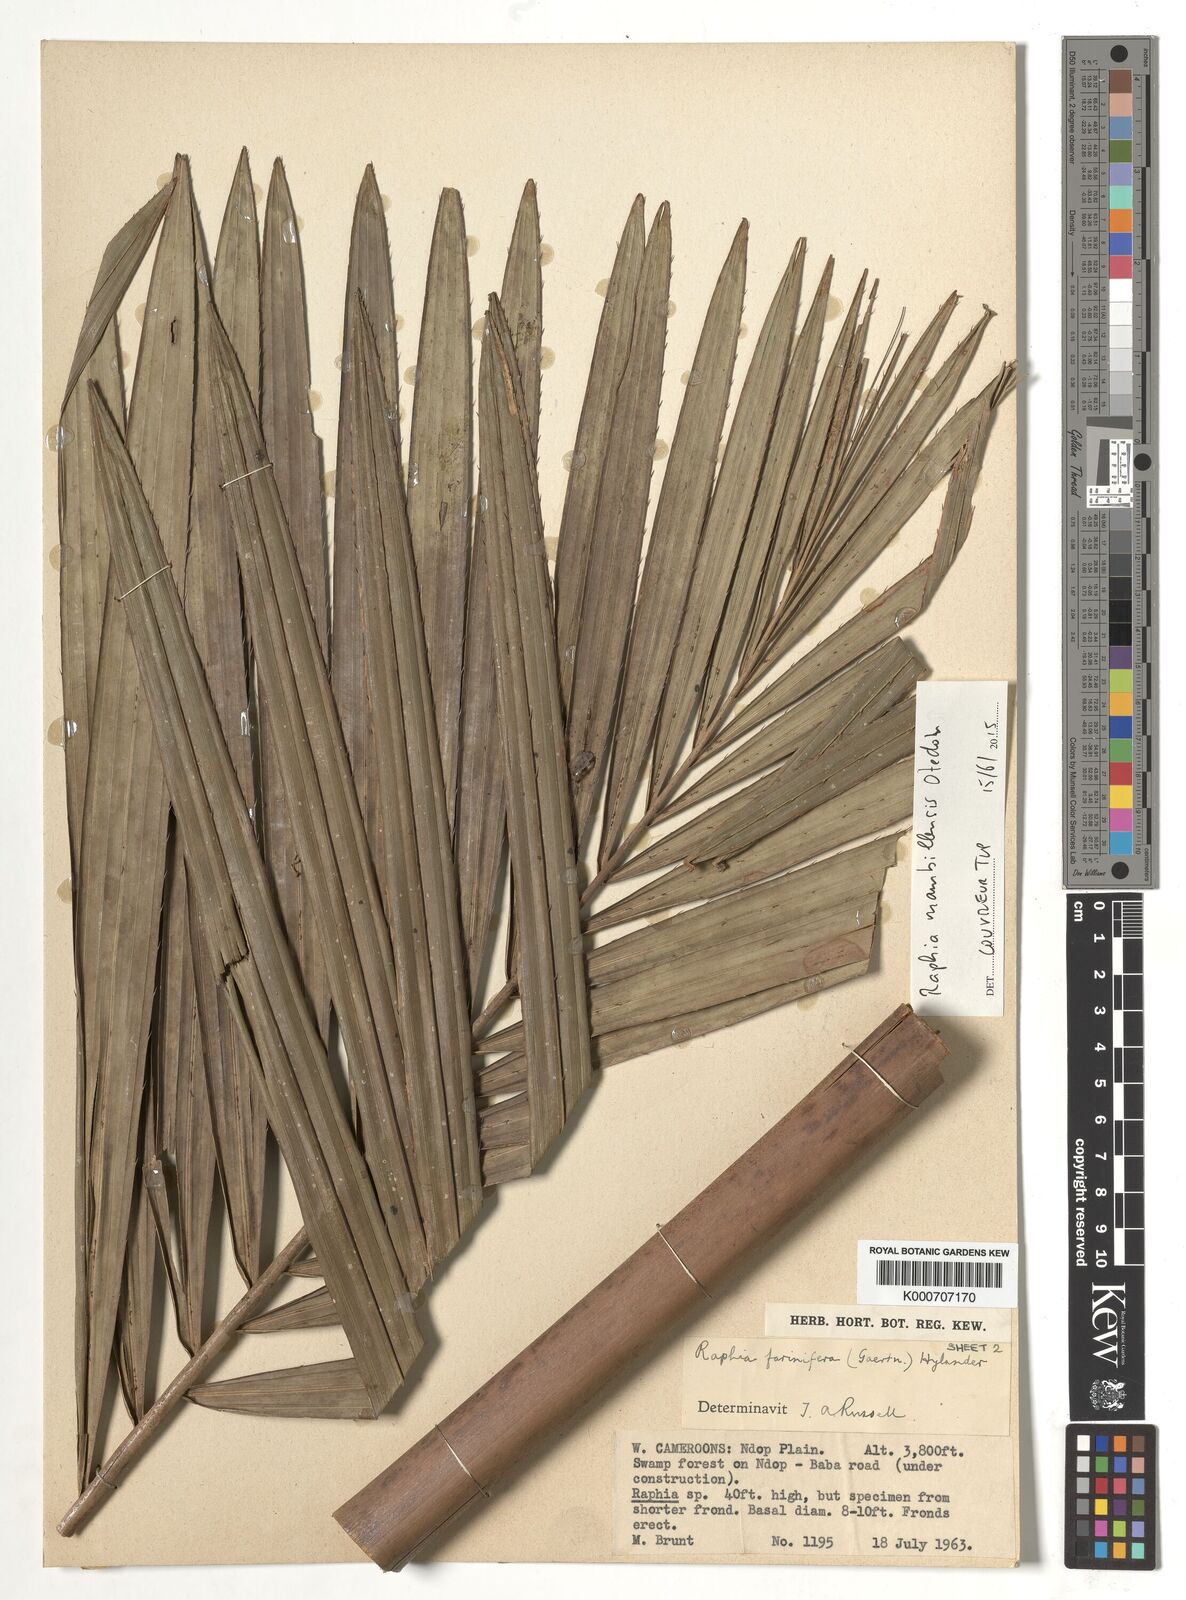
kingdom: Plantae
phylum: Tracheophyta
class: Liliopsida
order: Arecales
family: Arecaceae
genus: Raphia
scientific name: Raphia vinifera
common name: Raphia palm
